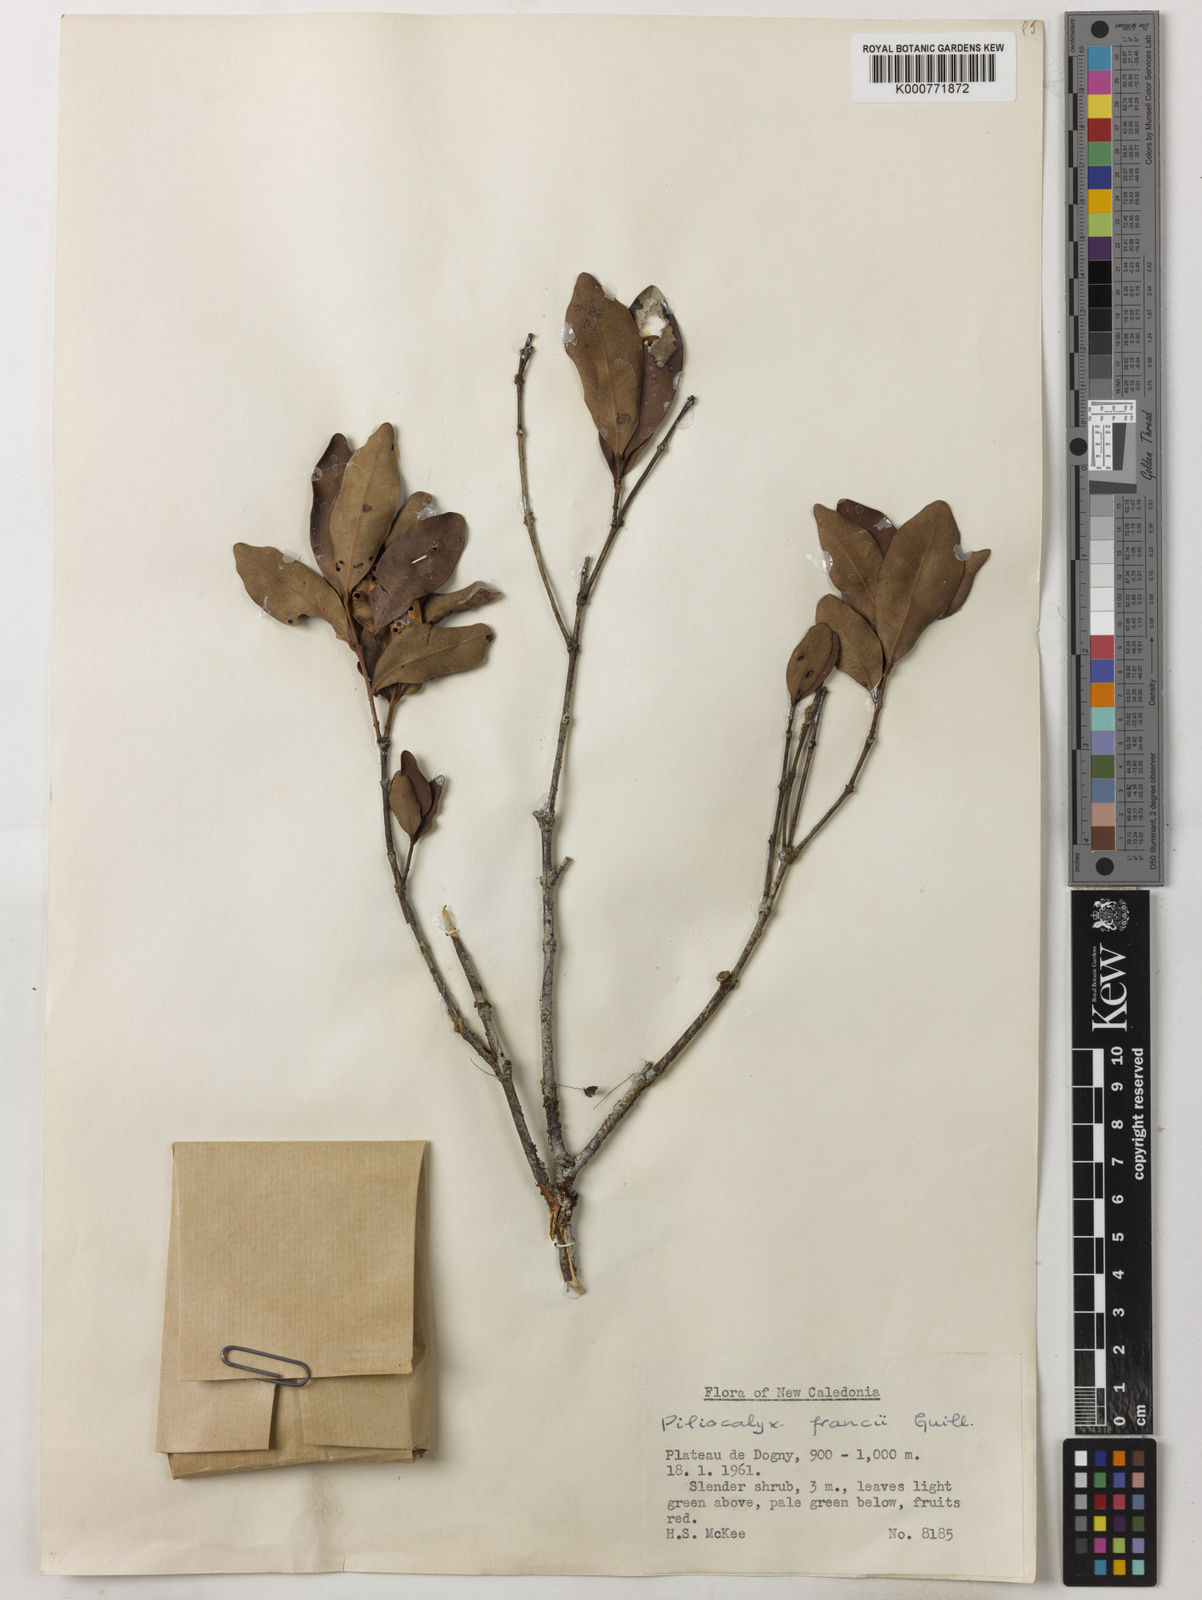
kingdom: Plantae
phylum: Tracheophyta
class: Magnoliopsida
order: Myrtales
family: Myrtaceae
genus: Syzygium
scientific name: Syzygium francii
